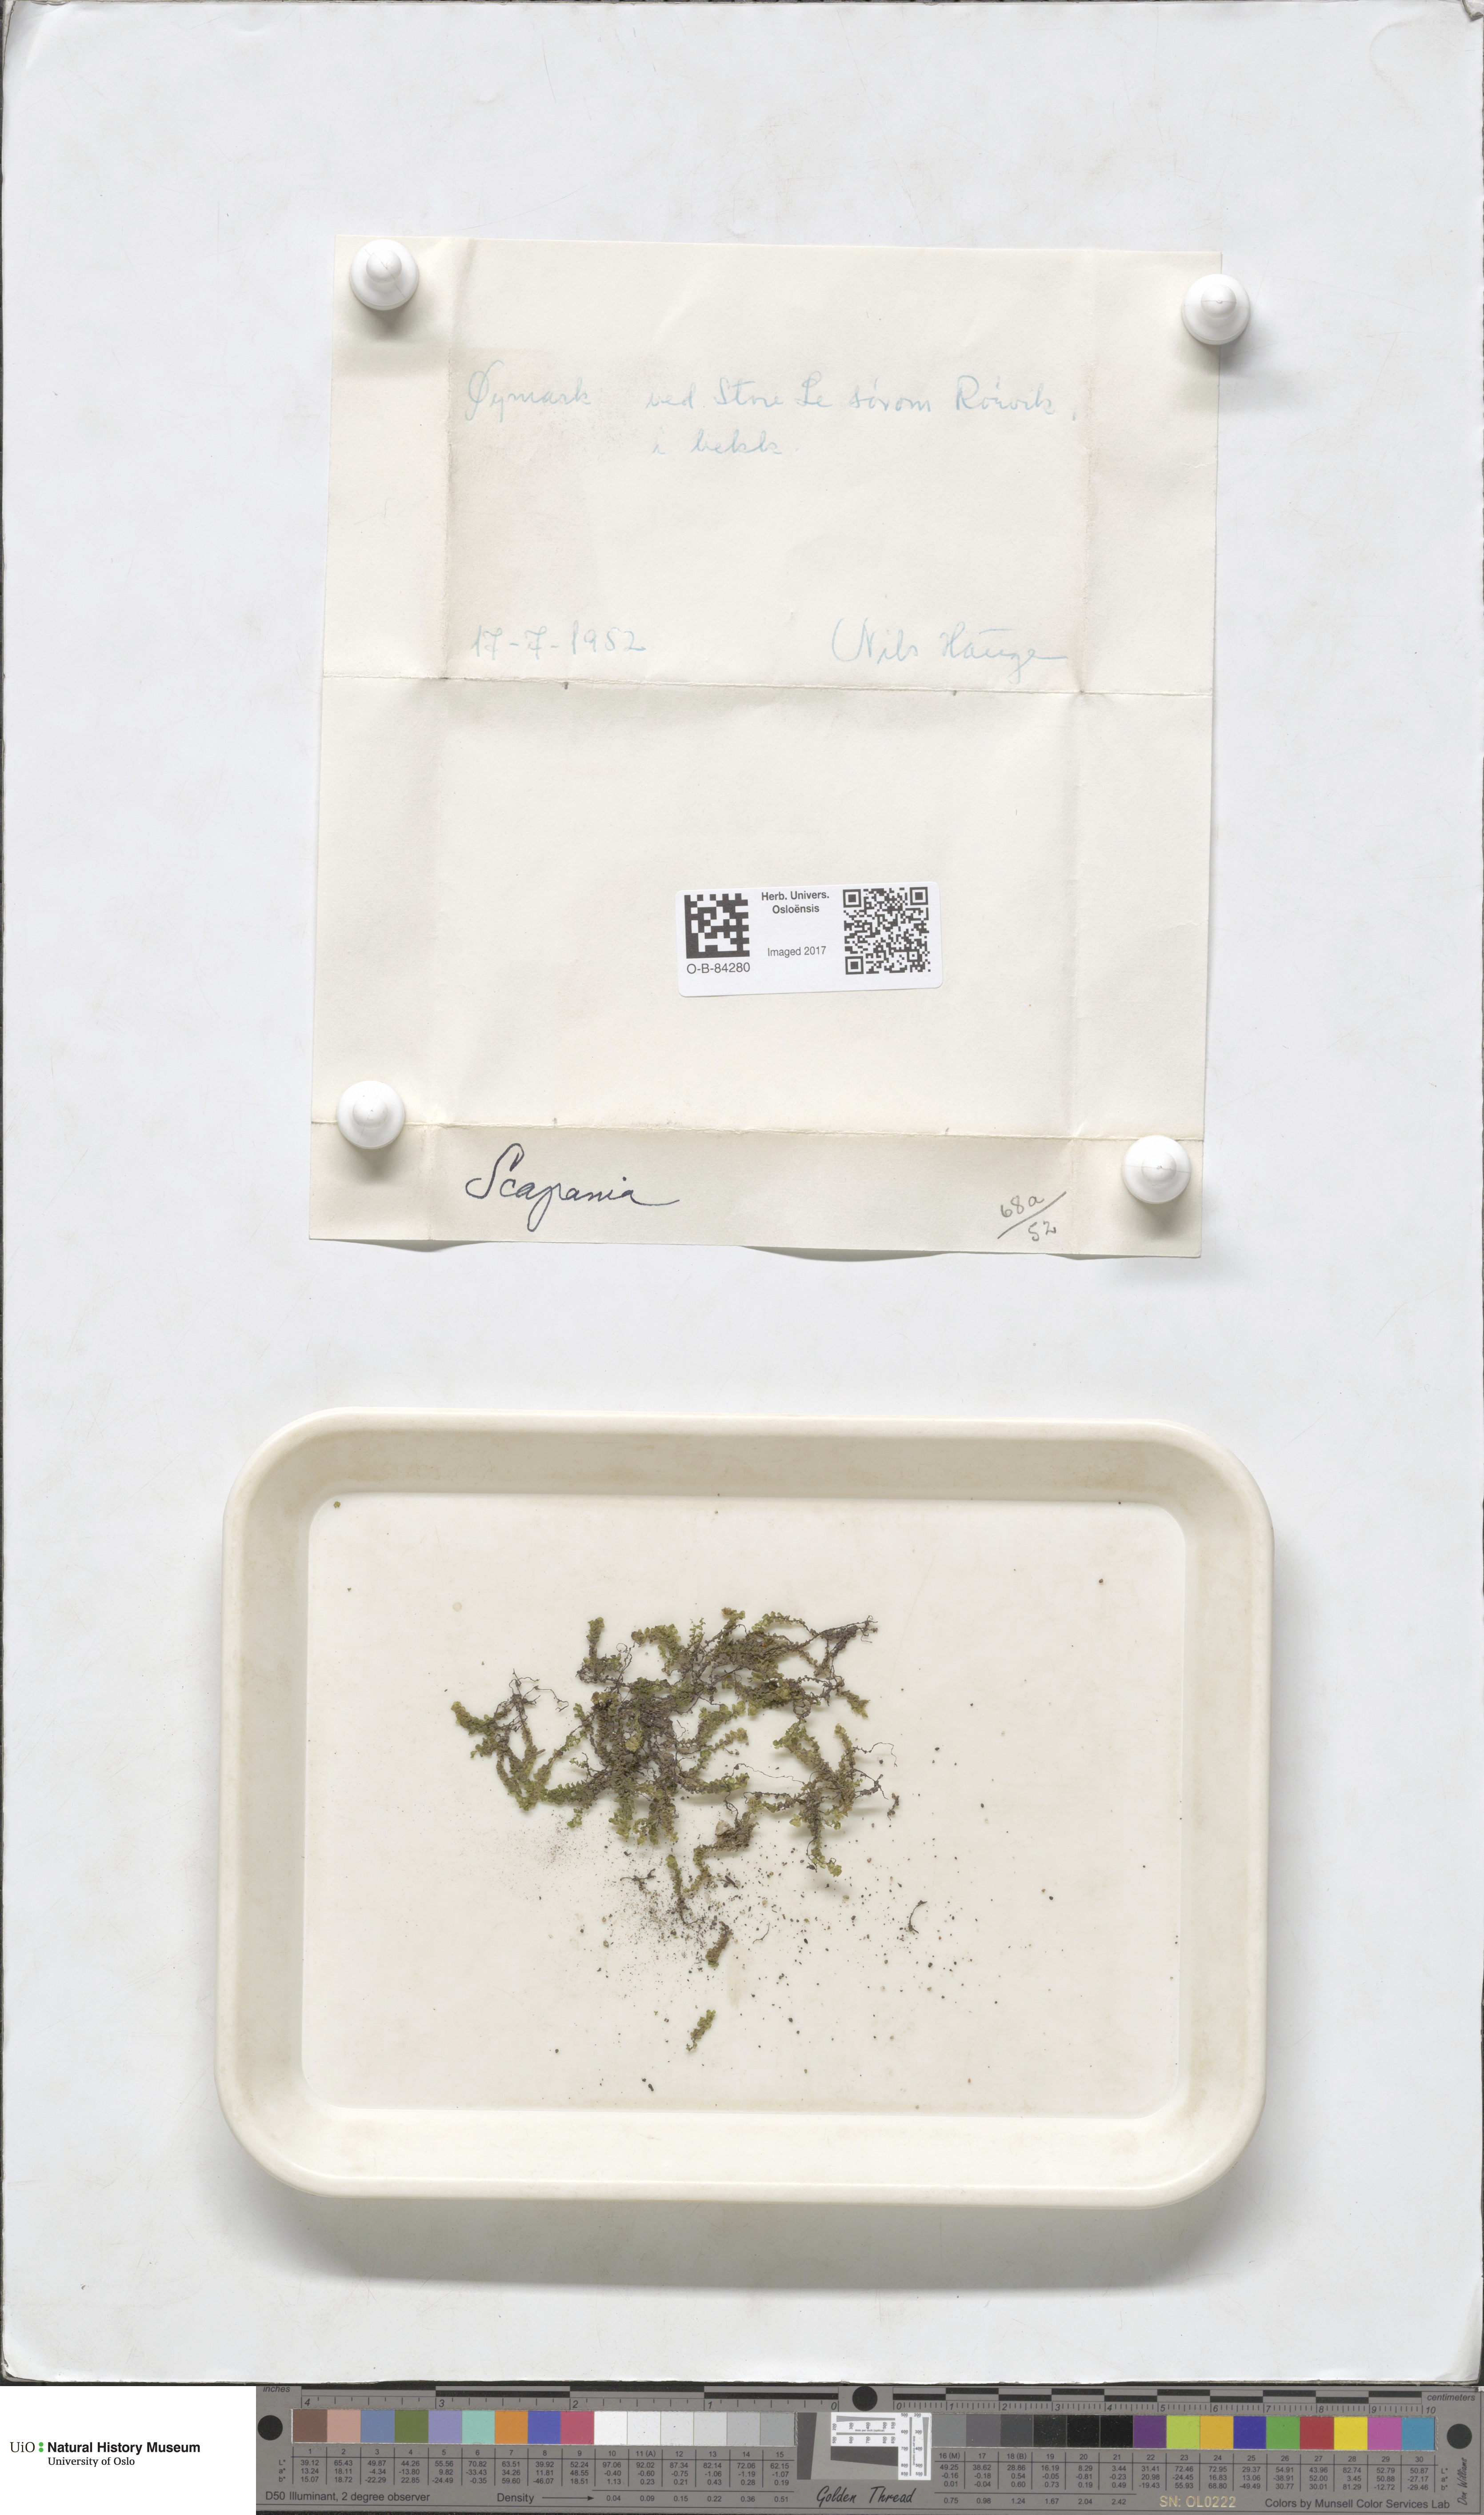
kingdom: Plantae
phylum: Marchantiophyta
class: Jungermanniopsida
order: Jungermanniales
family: Scapaniaceae
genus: Scapania
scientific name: Scapania
